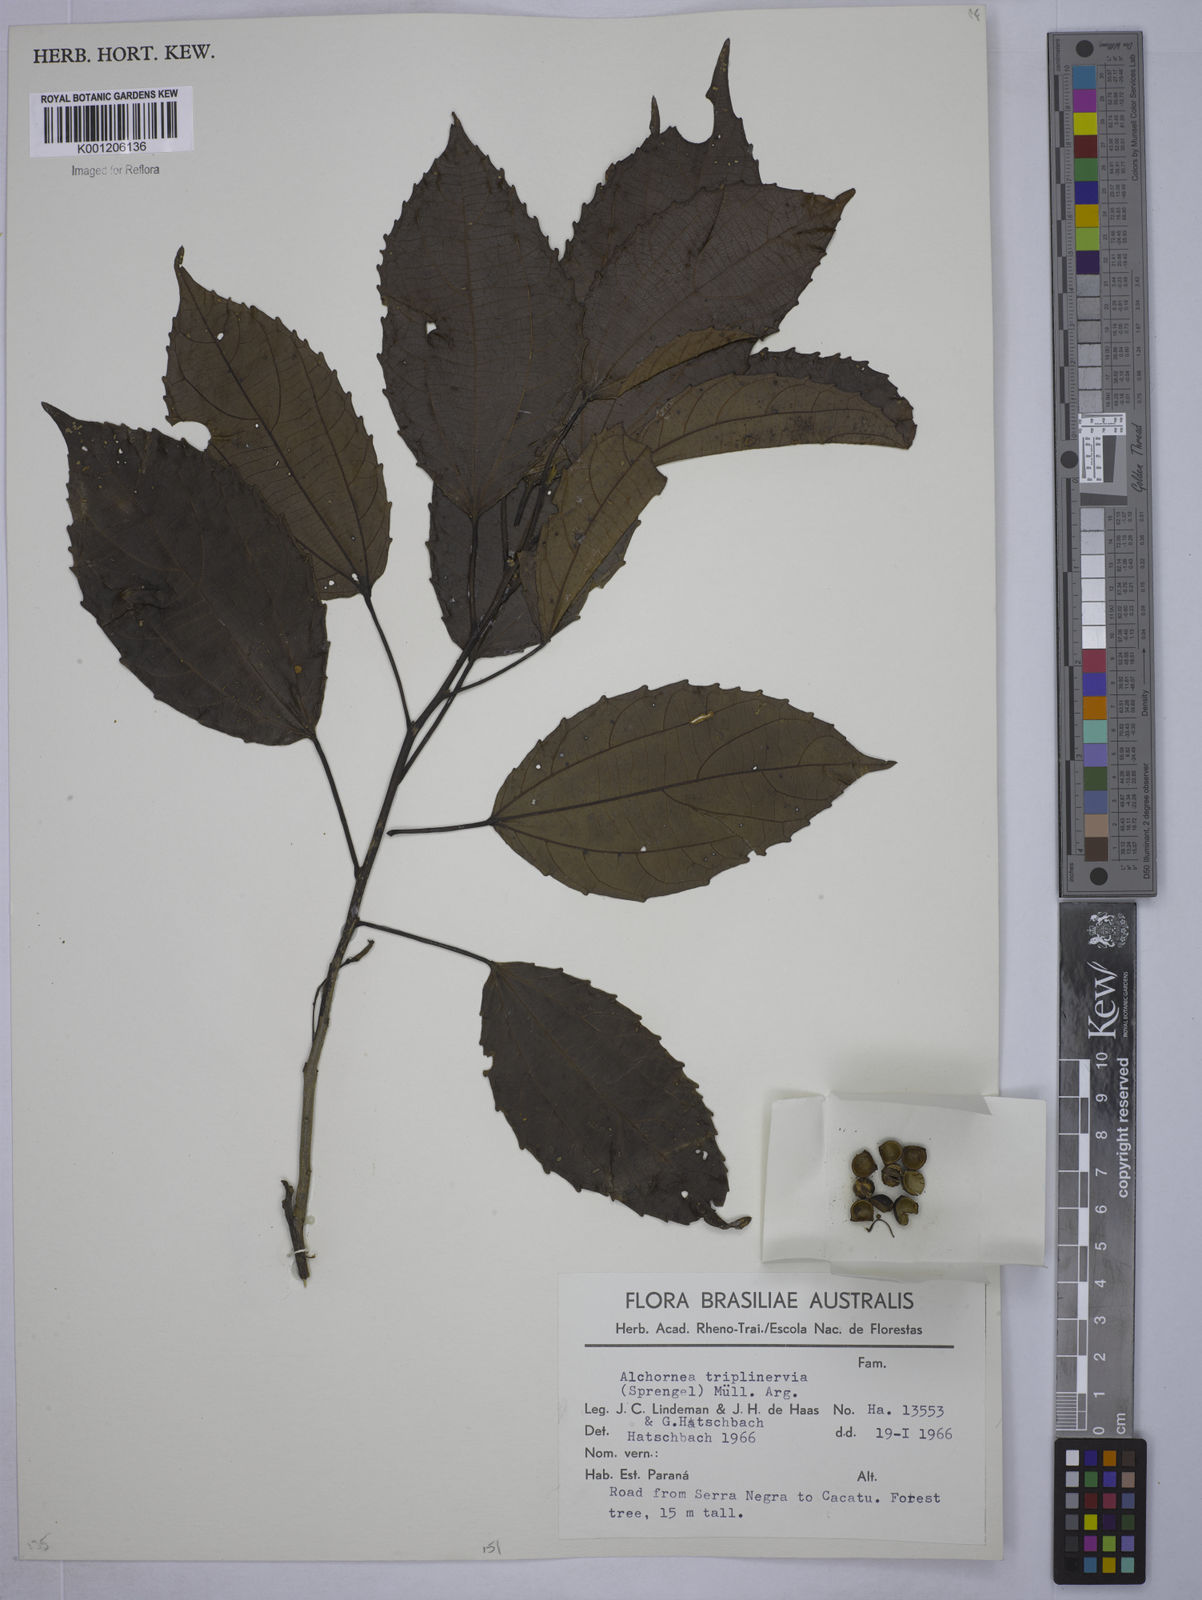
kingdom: Plantae
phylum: Tracheophyta
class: Magnoliopsida
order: Malpighiales
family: Euphorbiaceae
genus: Alchornea
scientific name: Alchornea
